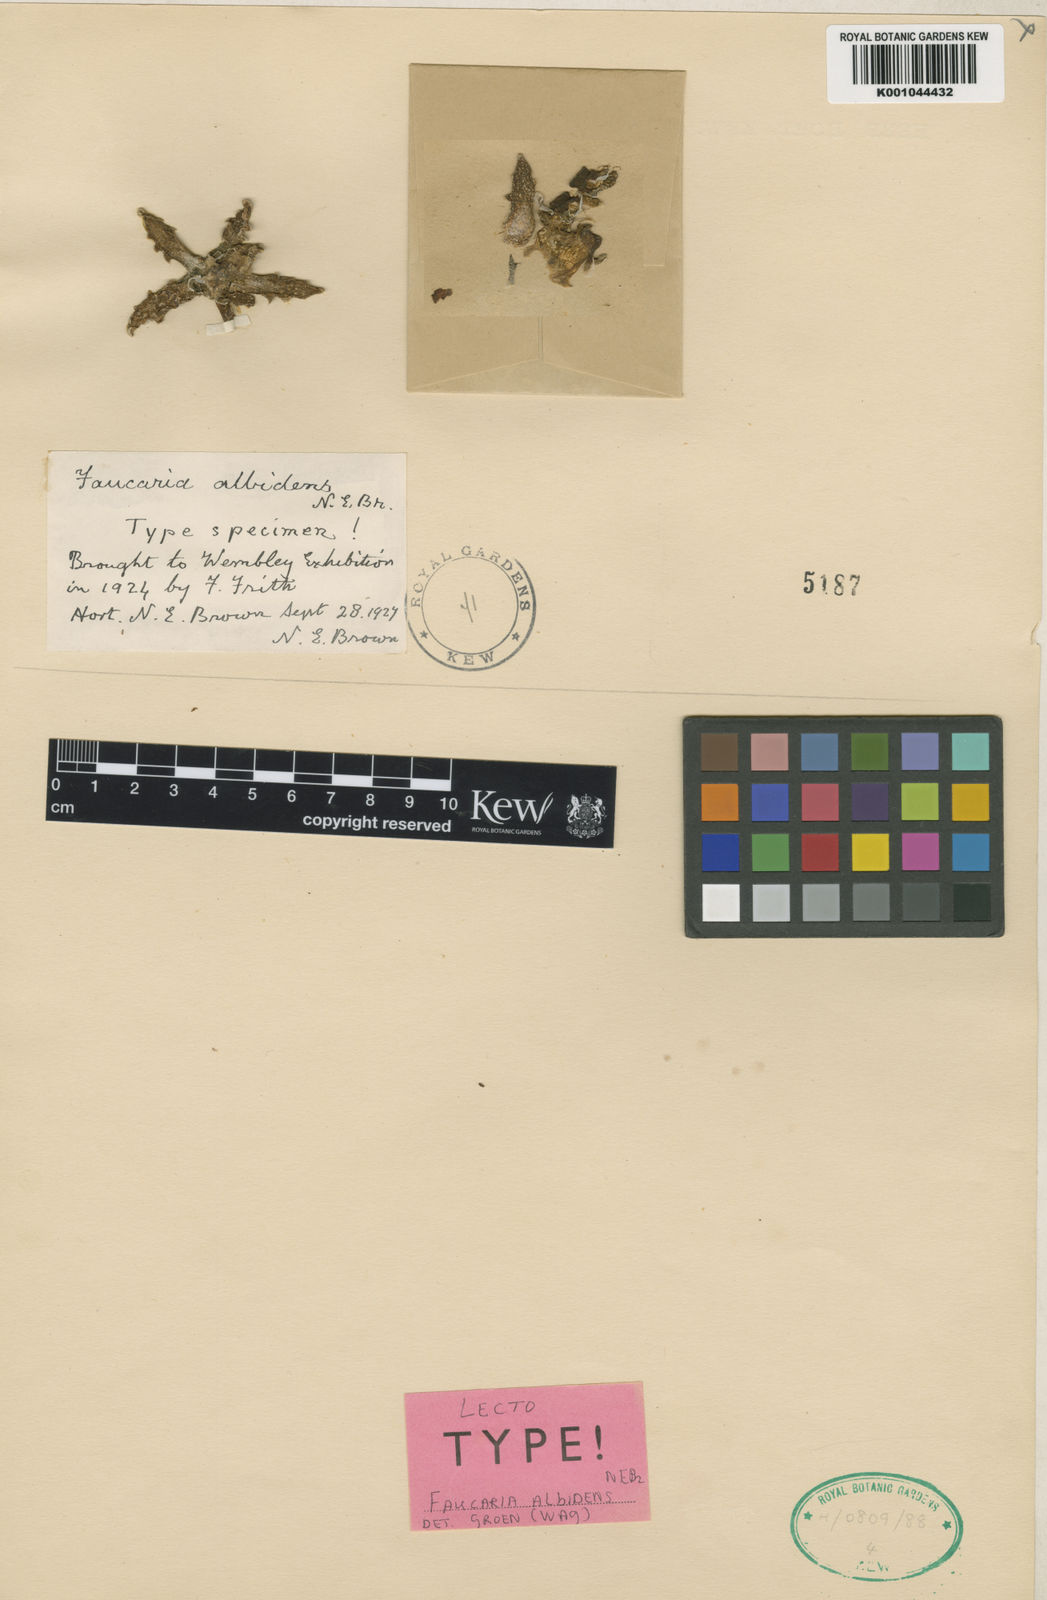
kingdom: Plantae
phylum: Tracheophyta
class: Magnoliopsida
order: Caryophyllales
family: Aizoaceae
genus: Faucaria
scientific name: Faucaria bosscheana
